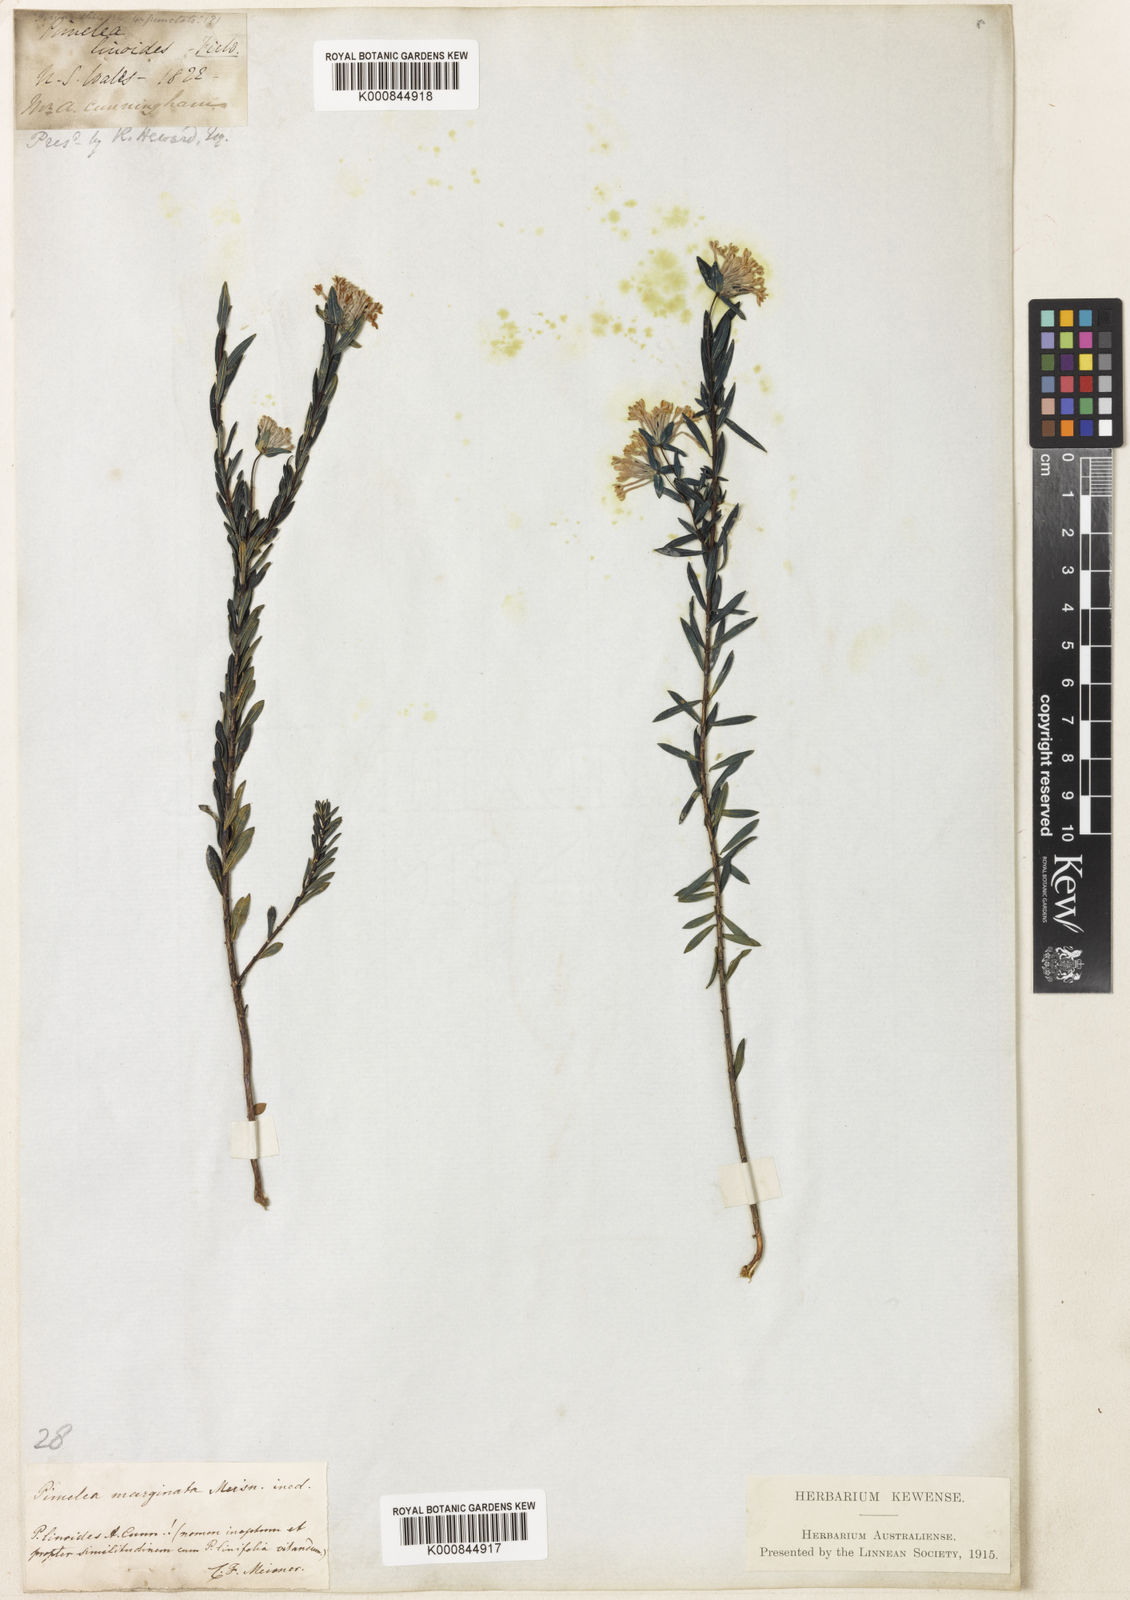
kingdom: Plantae
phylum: Tracheophyta
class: Magnoliopsida
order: Malvales
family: Thymelaeaceae
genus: Pimelea
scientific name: Pimelea linifolia
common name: Queen-of-the-bush
